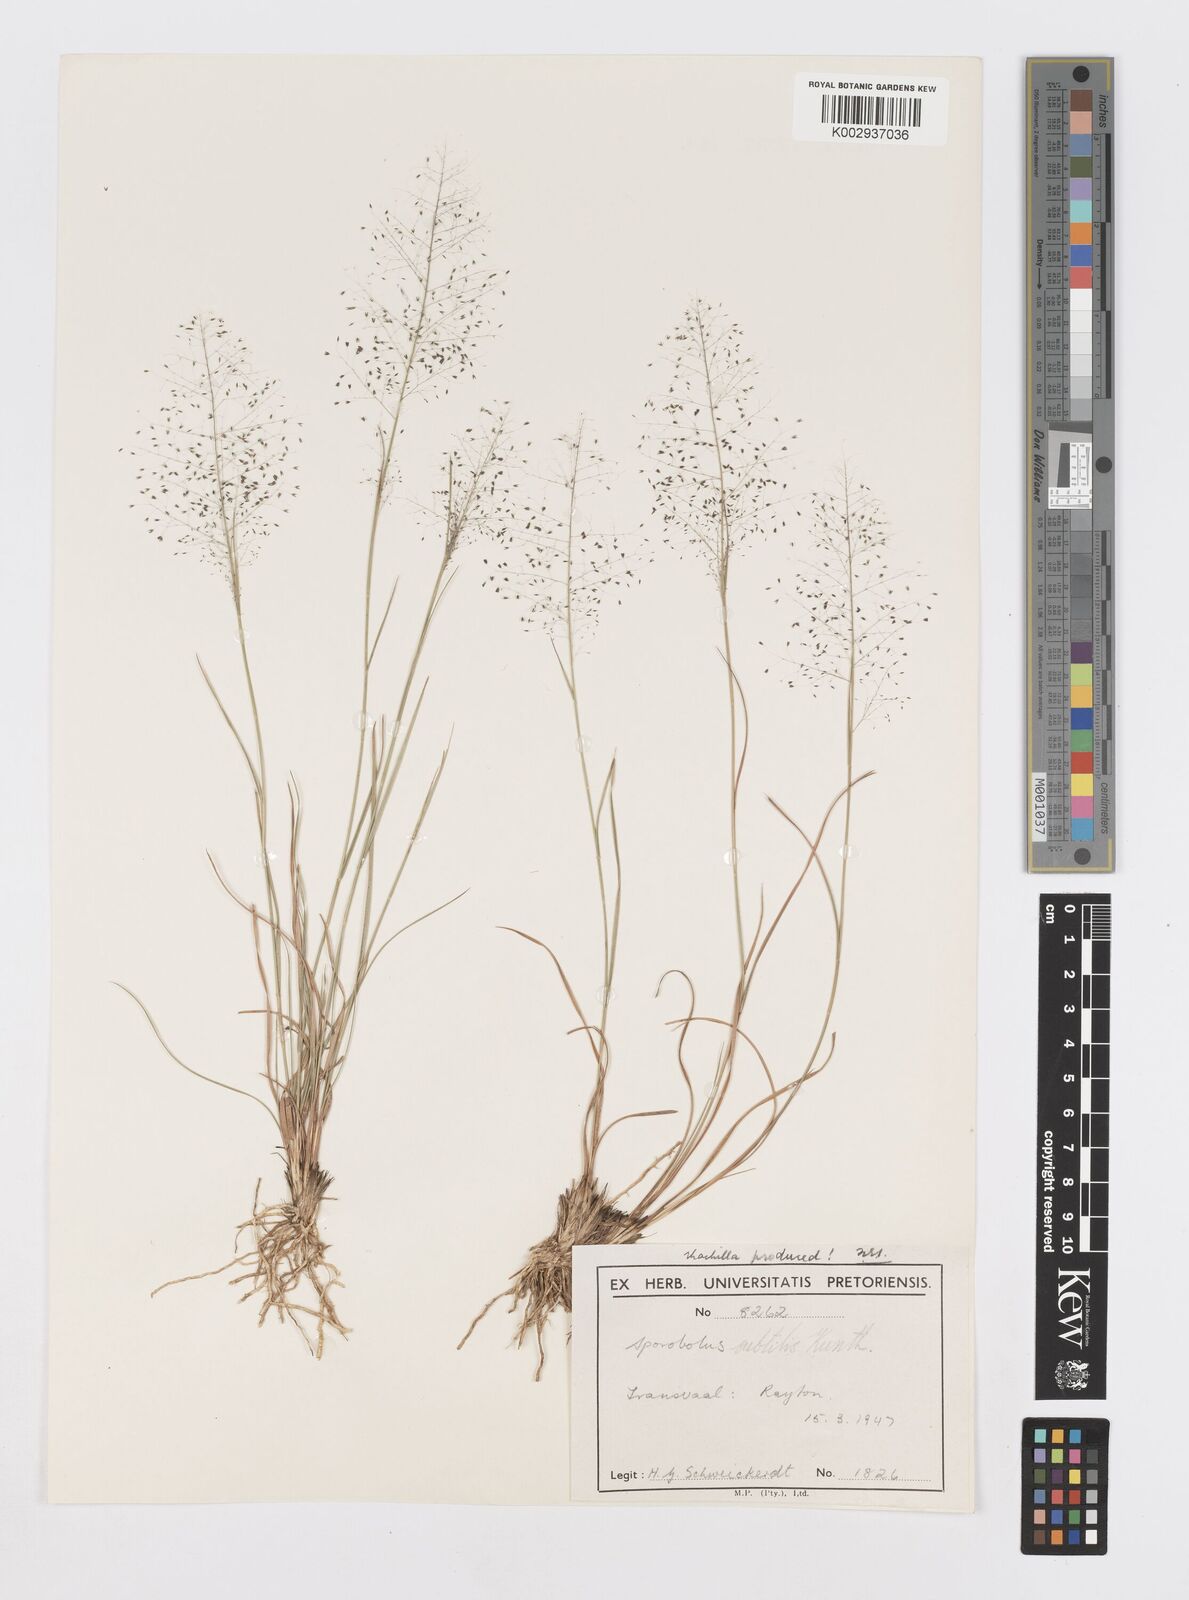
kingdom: Plantae
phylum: Tracheophyta
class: Liliopsida
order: Poales
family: Poaceae
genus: Sporobolus
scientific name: Sporobolus welwitschii
